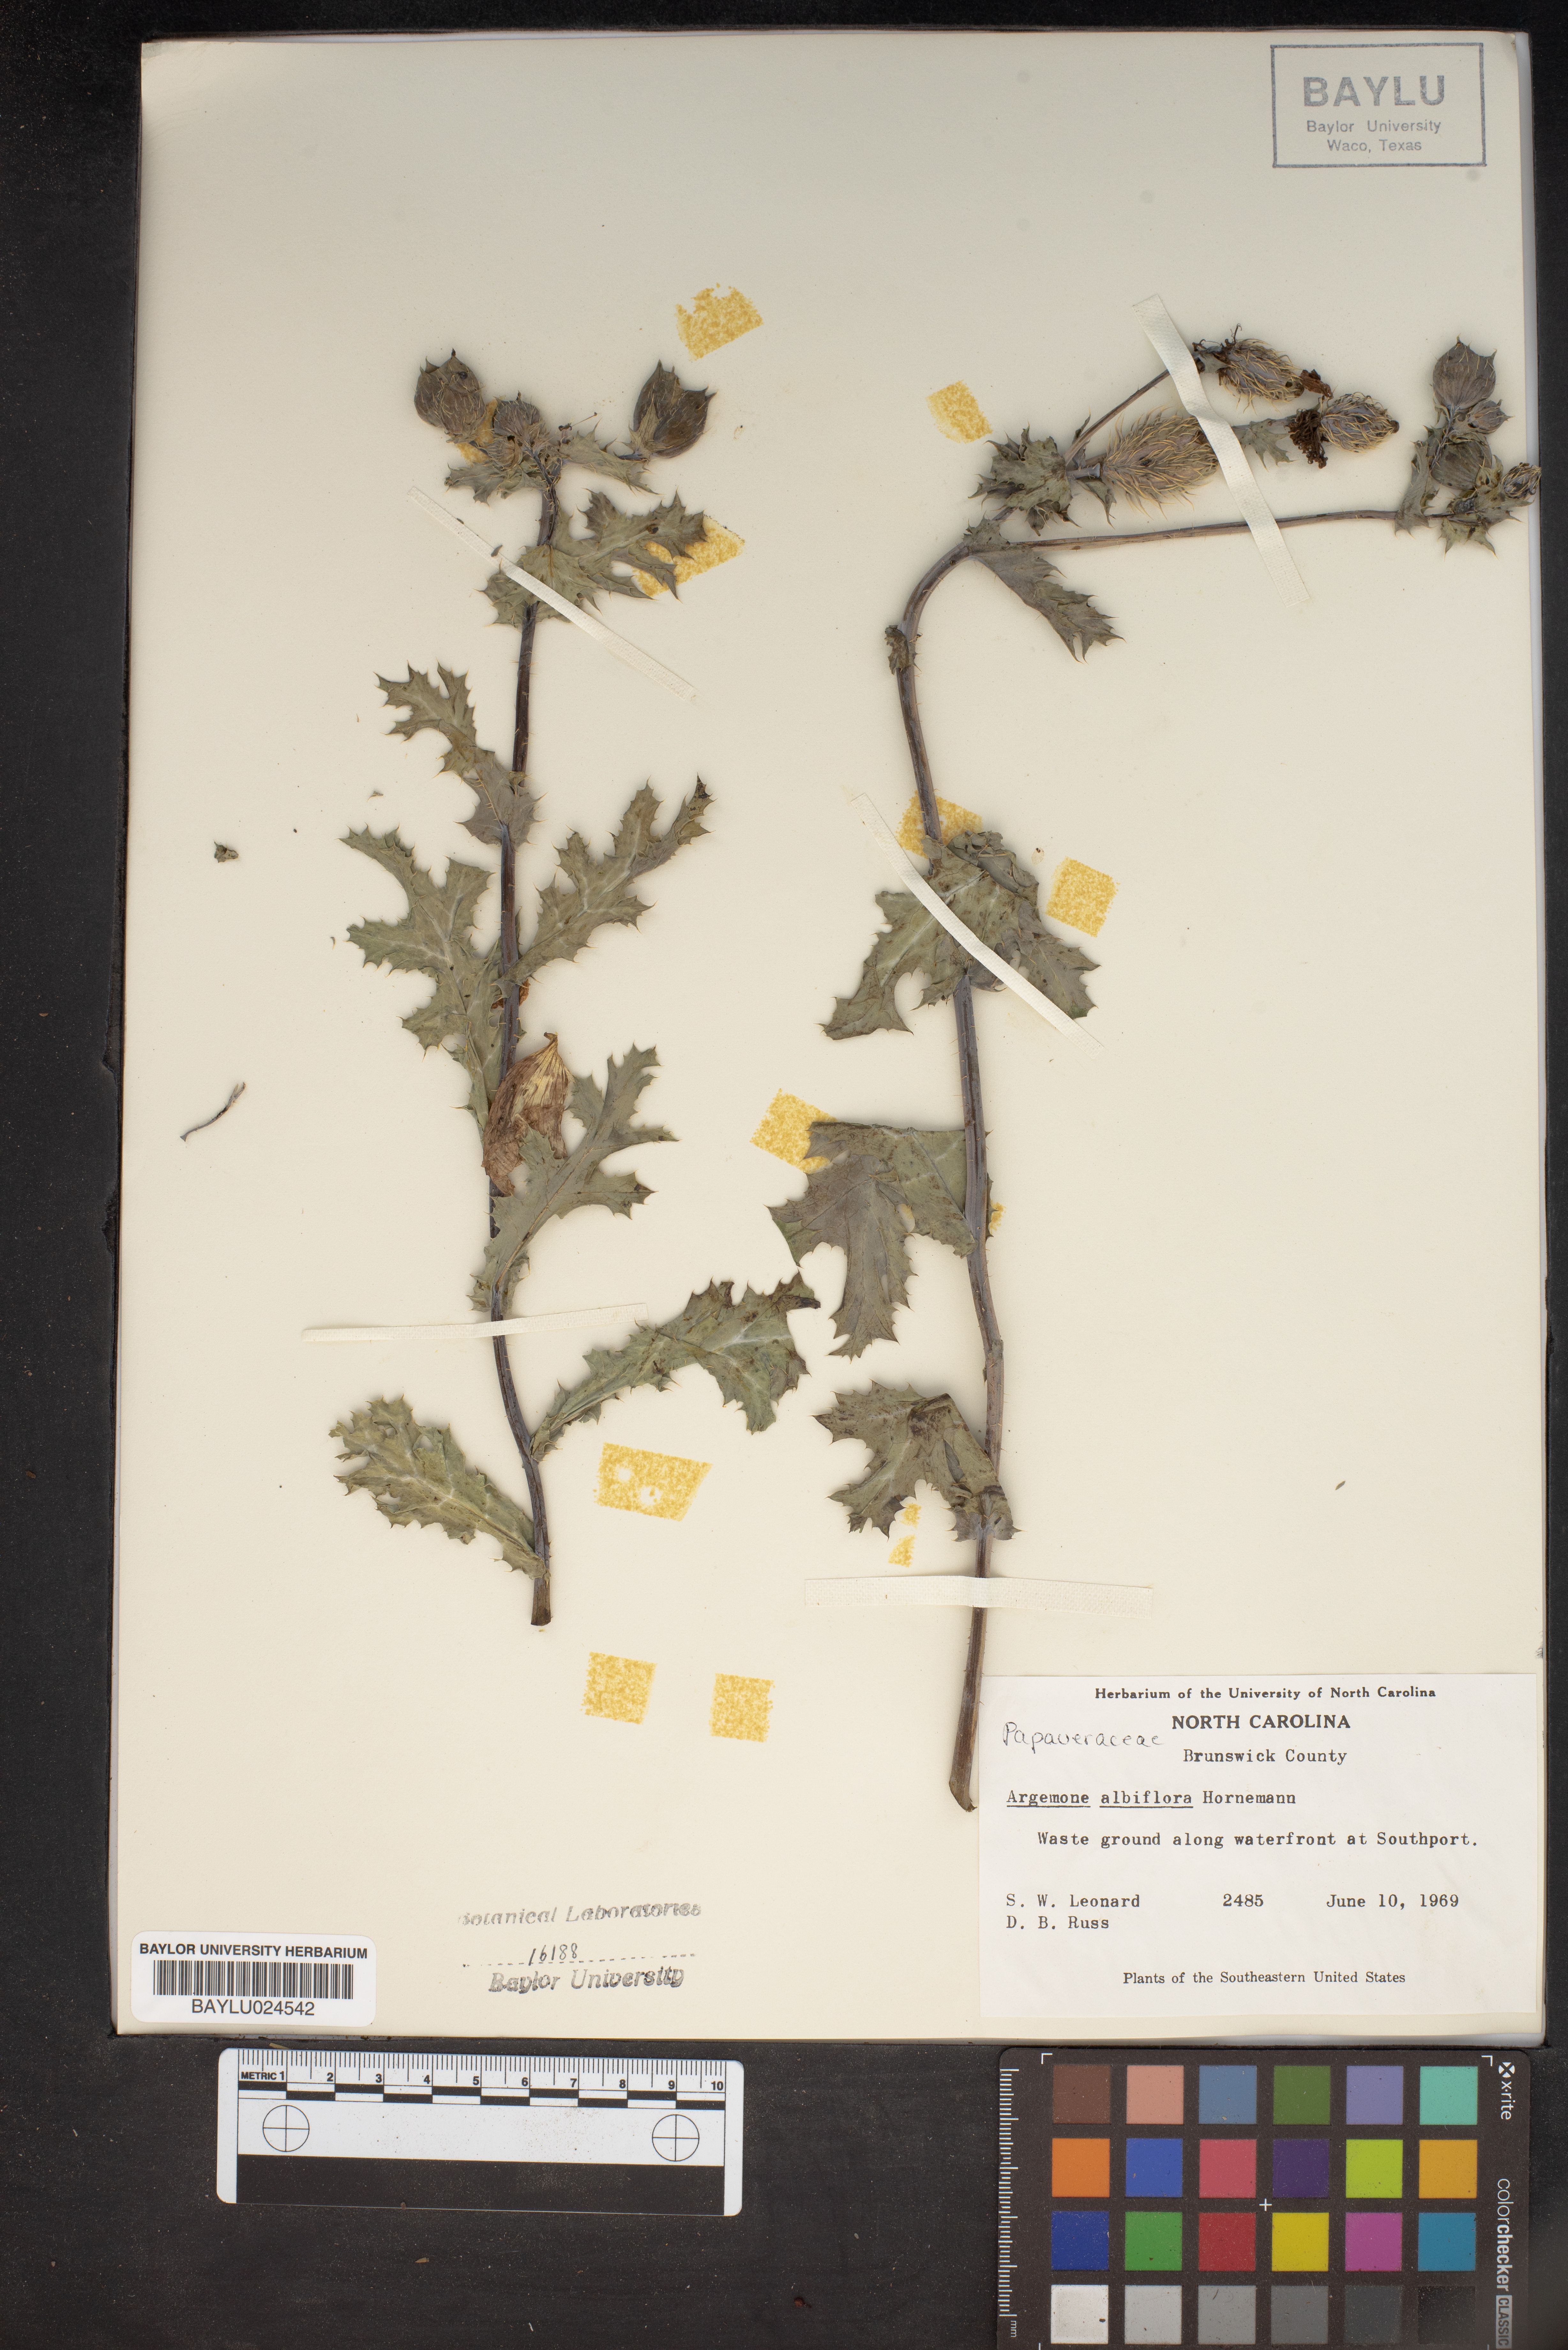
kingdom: Plantae
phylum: Tracheophyta
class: Magnoliopsida
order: Ranunculales
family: Papaveraceae
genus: Argemone
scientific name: Argemone albiflora
